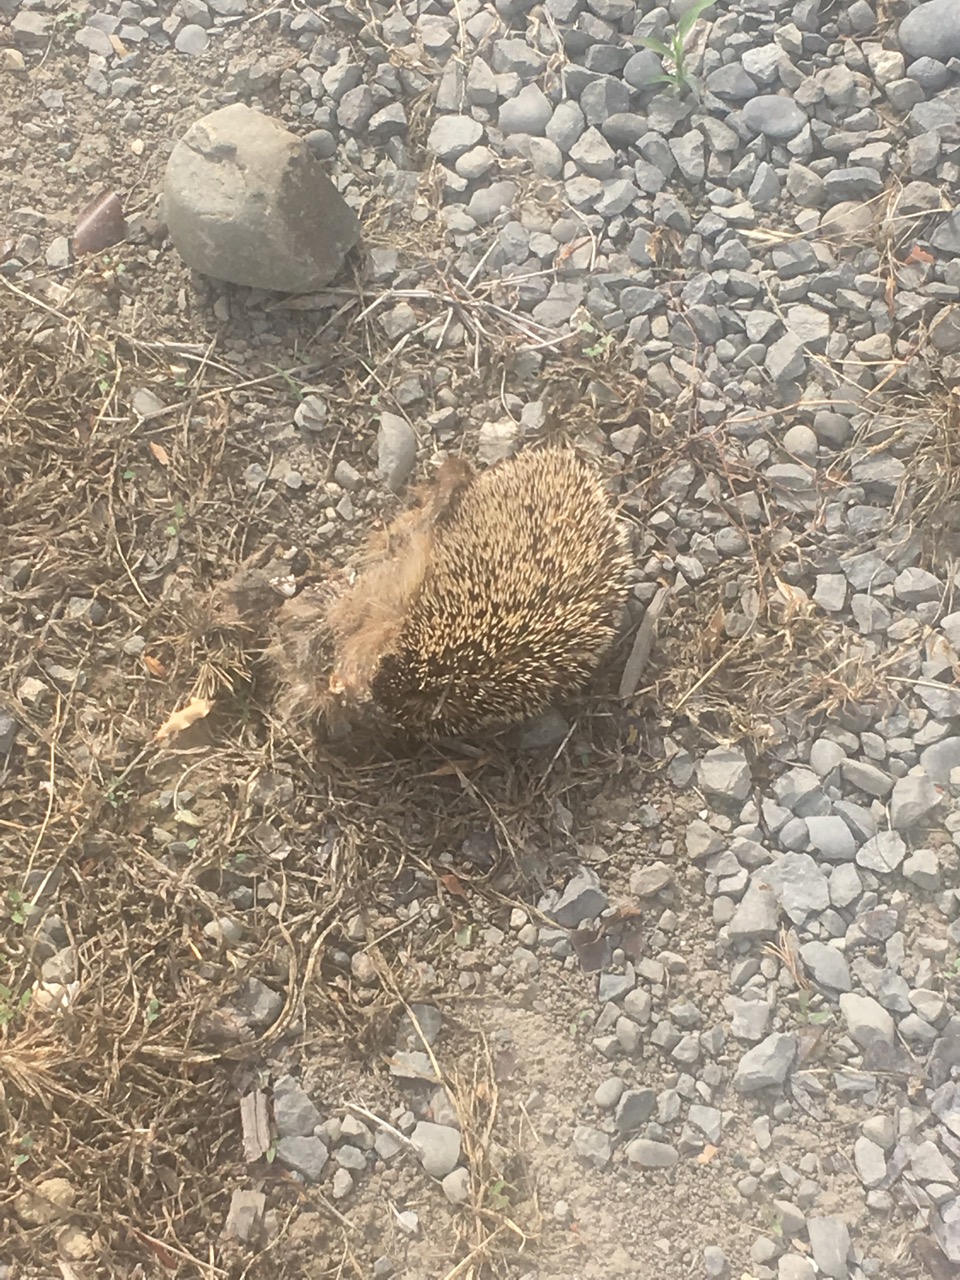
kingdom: Animalia
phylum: Chordata
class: Mammalia
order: Erinaceomorpha
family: Erinaceidae
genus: Erinaceus
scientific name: Erinaceus
